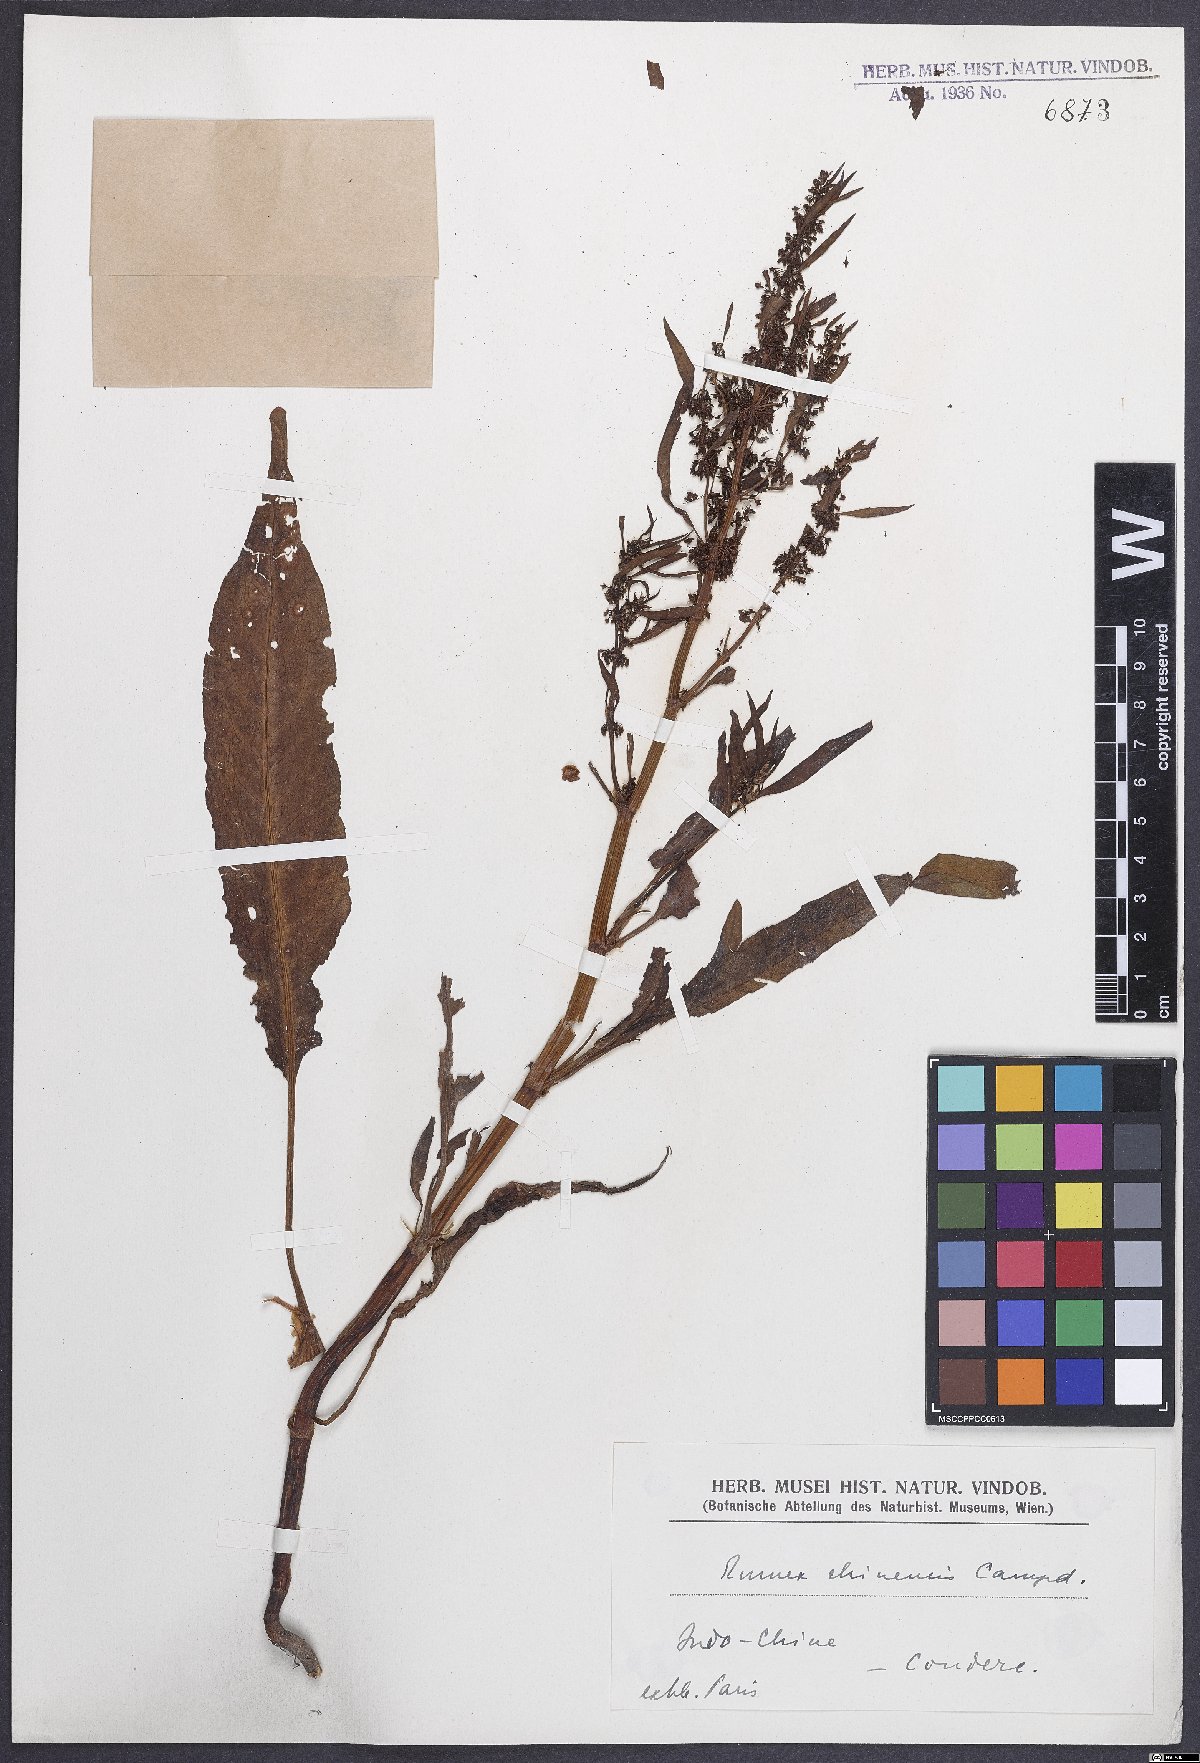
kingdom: Plantae
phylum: Tracheophyta
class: Magnoliopsida
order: Caryophyllales
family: Polygonaceae
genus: Rumex
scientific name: Rumex
